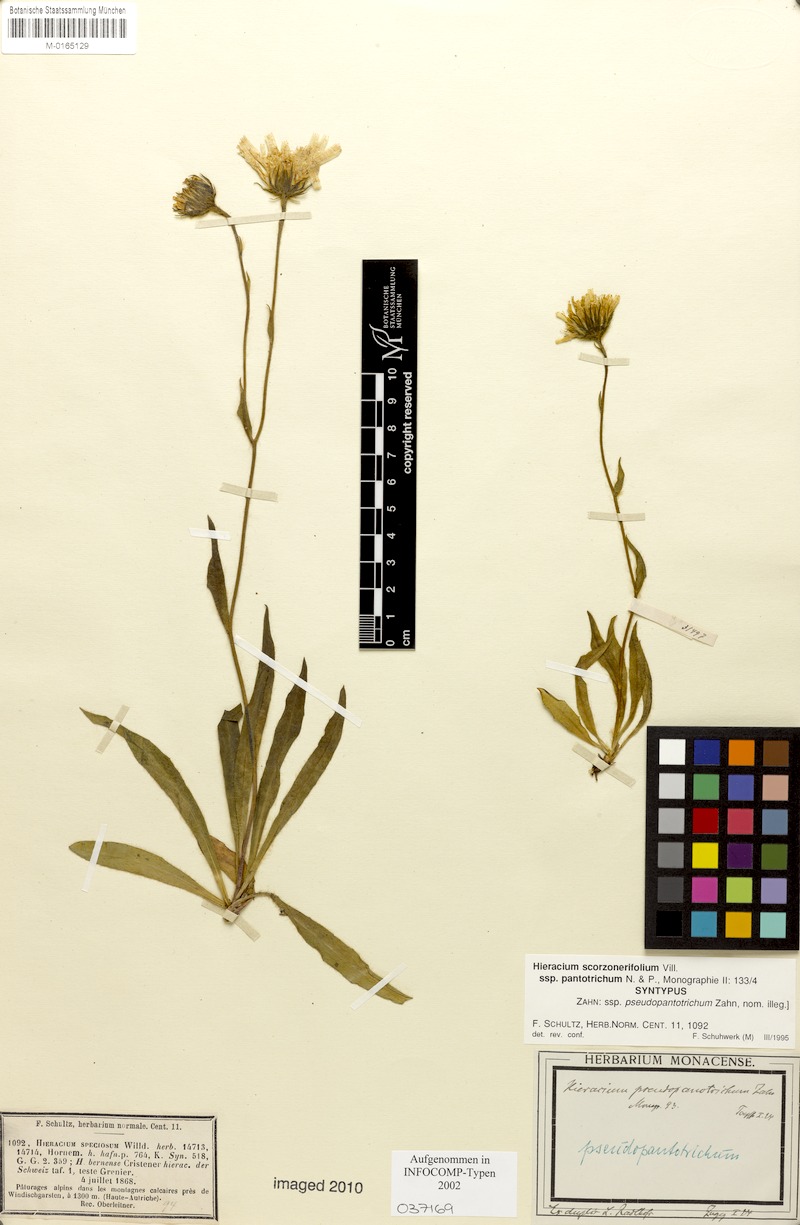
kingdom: Plantae
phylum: Tracheophyta
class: Magnoliopsida
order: Asterales
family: Asteraceae
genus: Hieracium
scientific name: Hieracium scorzonerifolium
